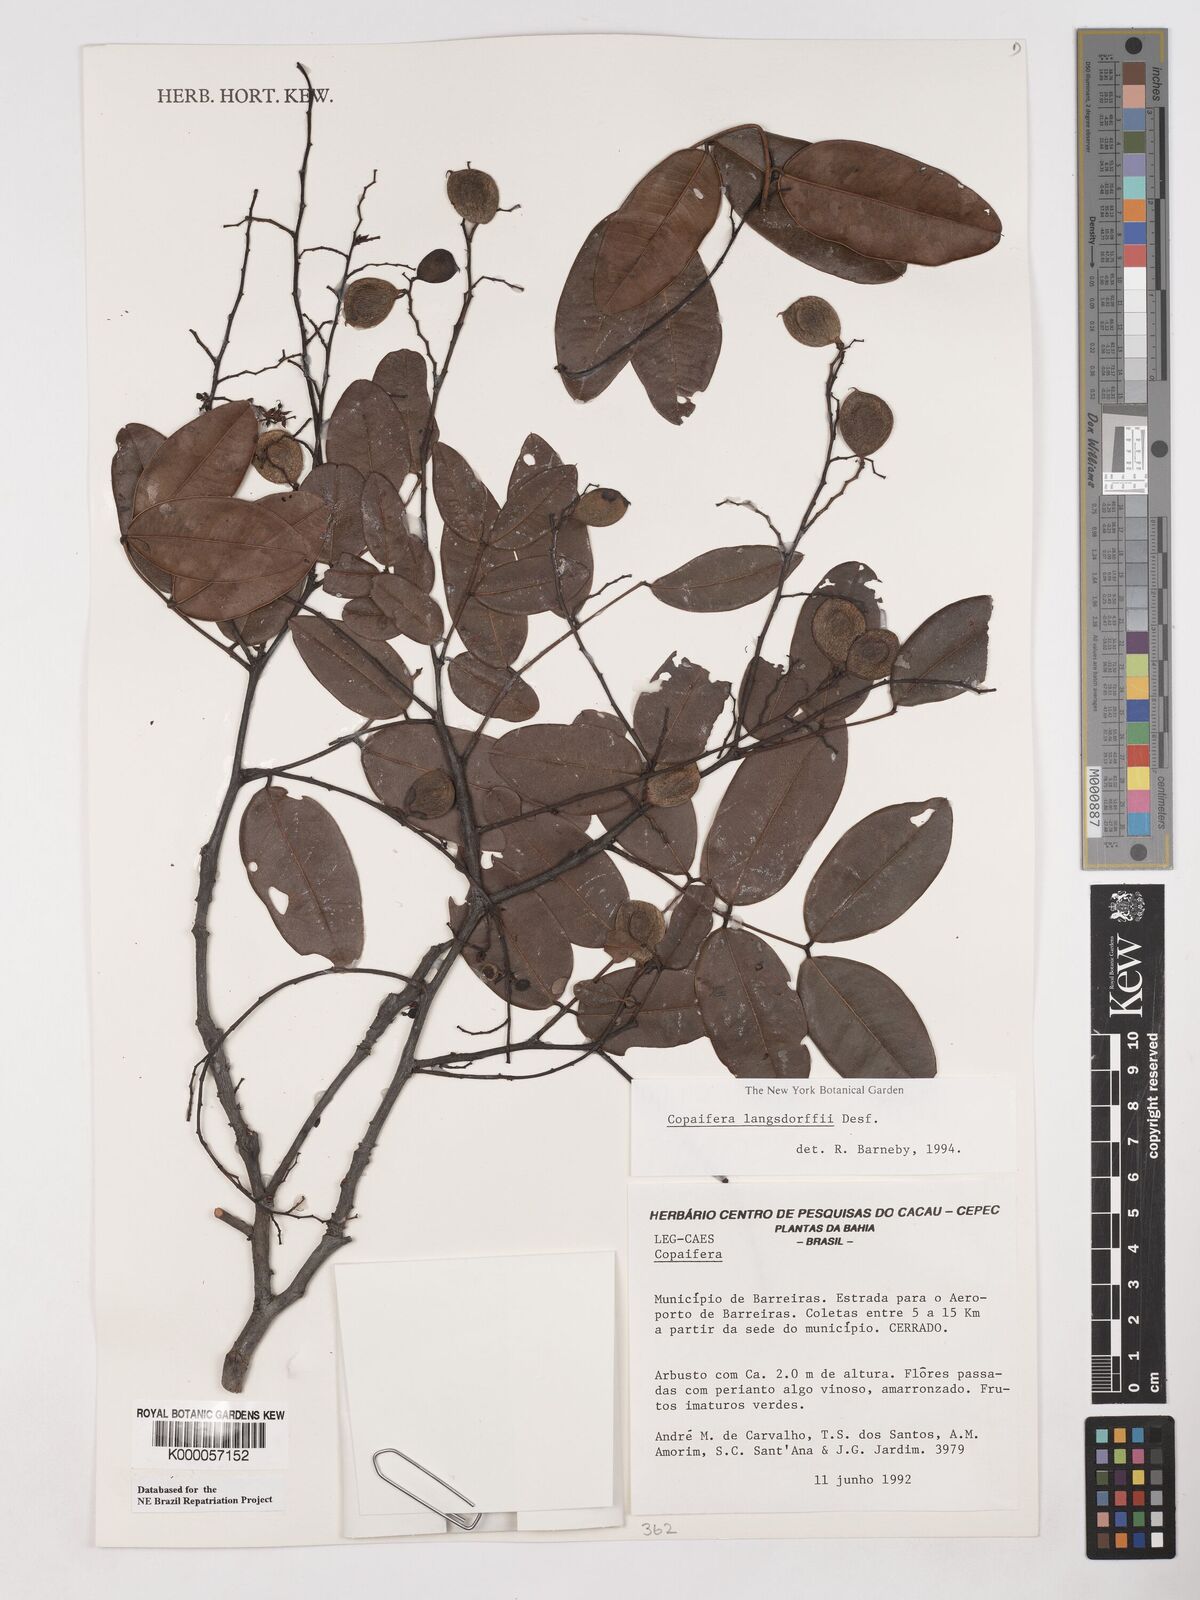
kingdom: Plantae
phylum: Tracheophyta
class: Magnoliopsida
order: Fabales
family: Fabaceae
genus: Copaifera
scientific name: Copaifera langsdorffii
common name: Brazilian diesel tree
